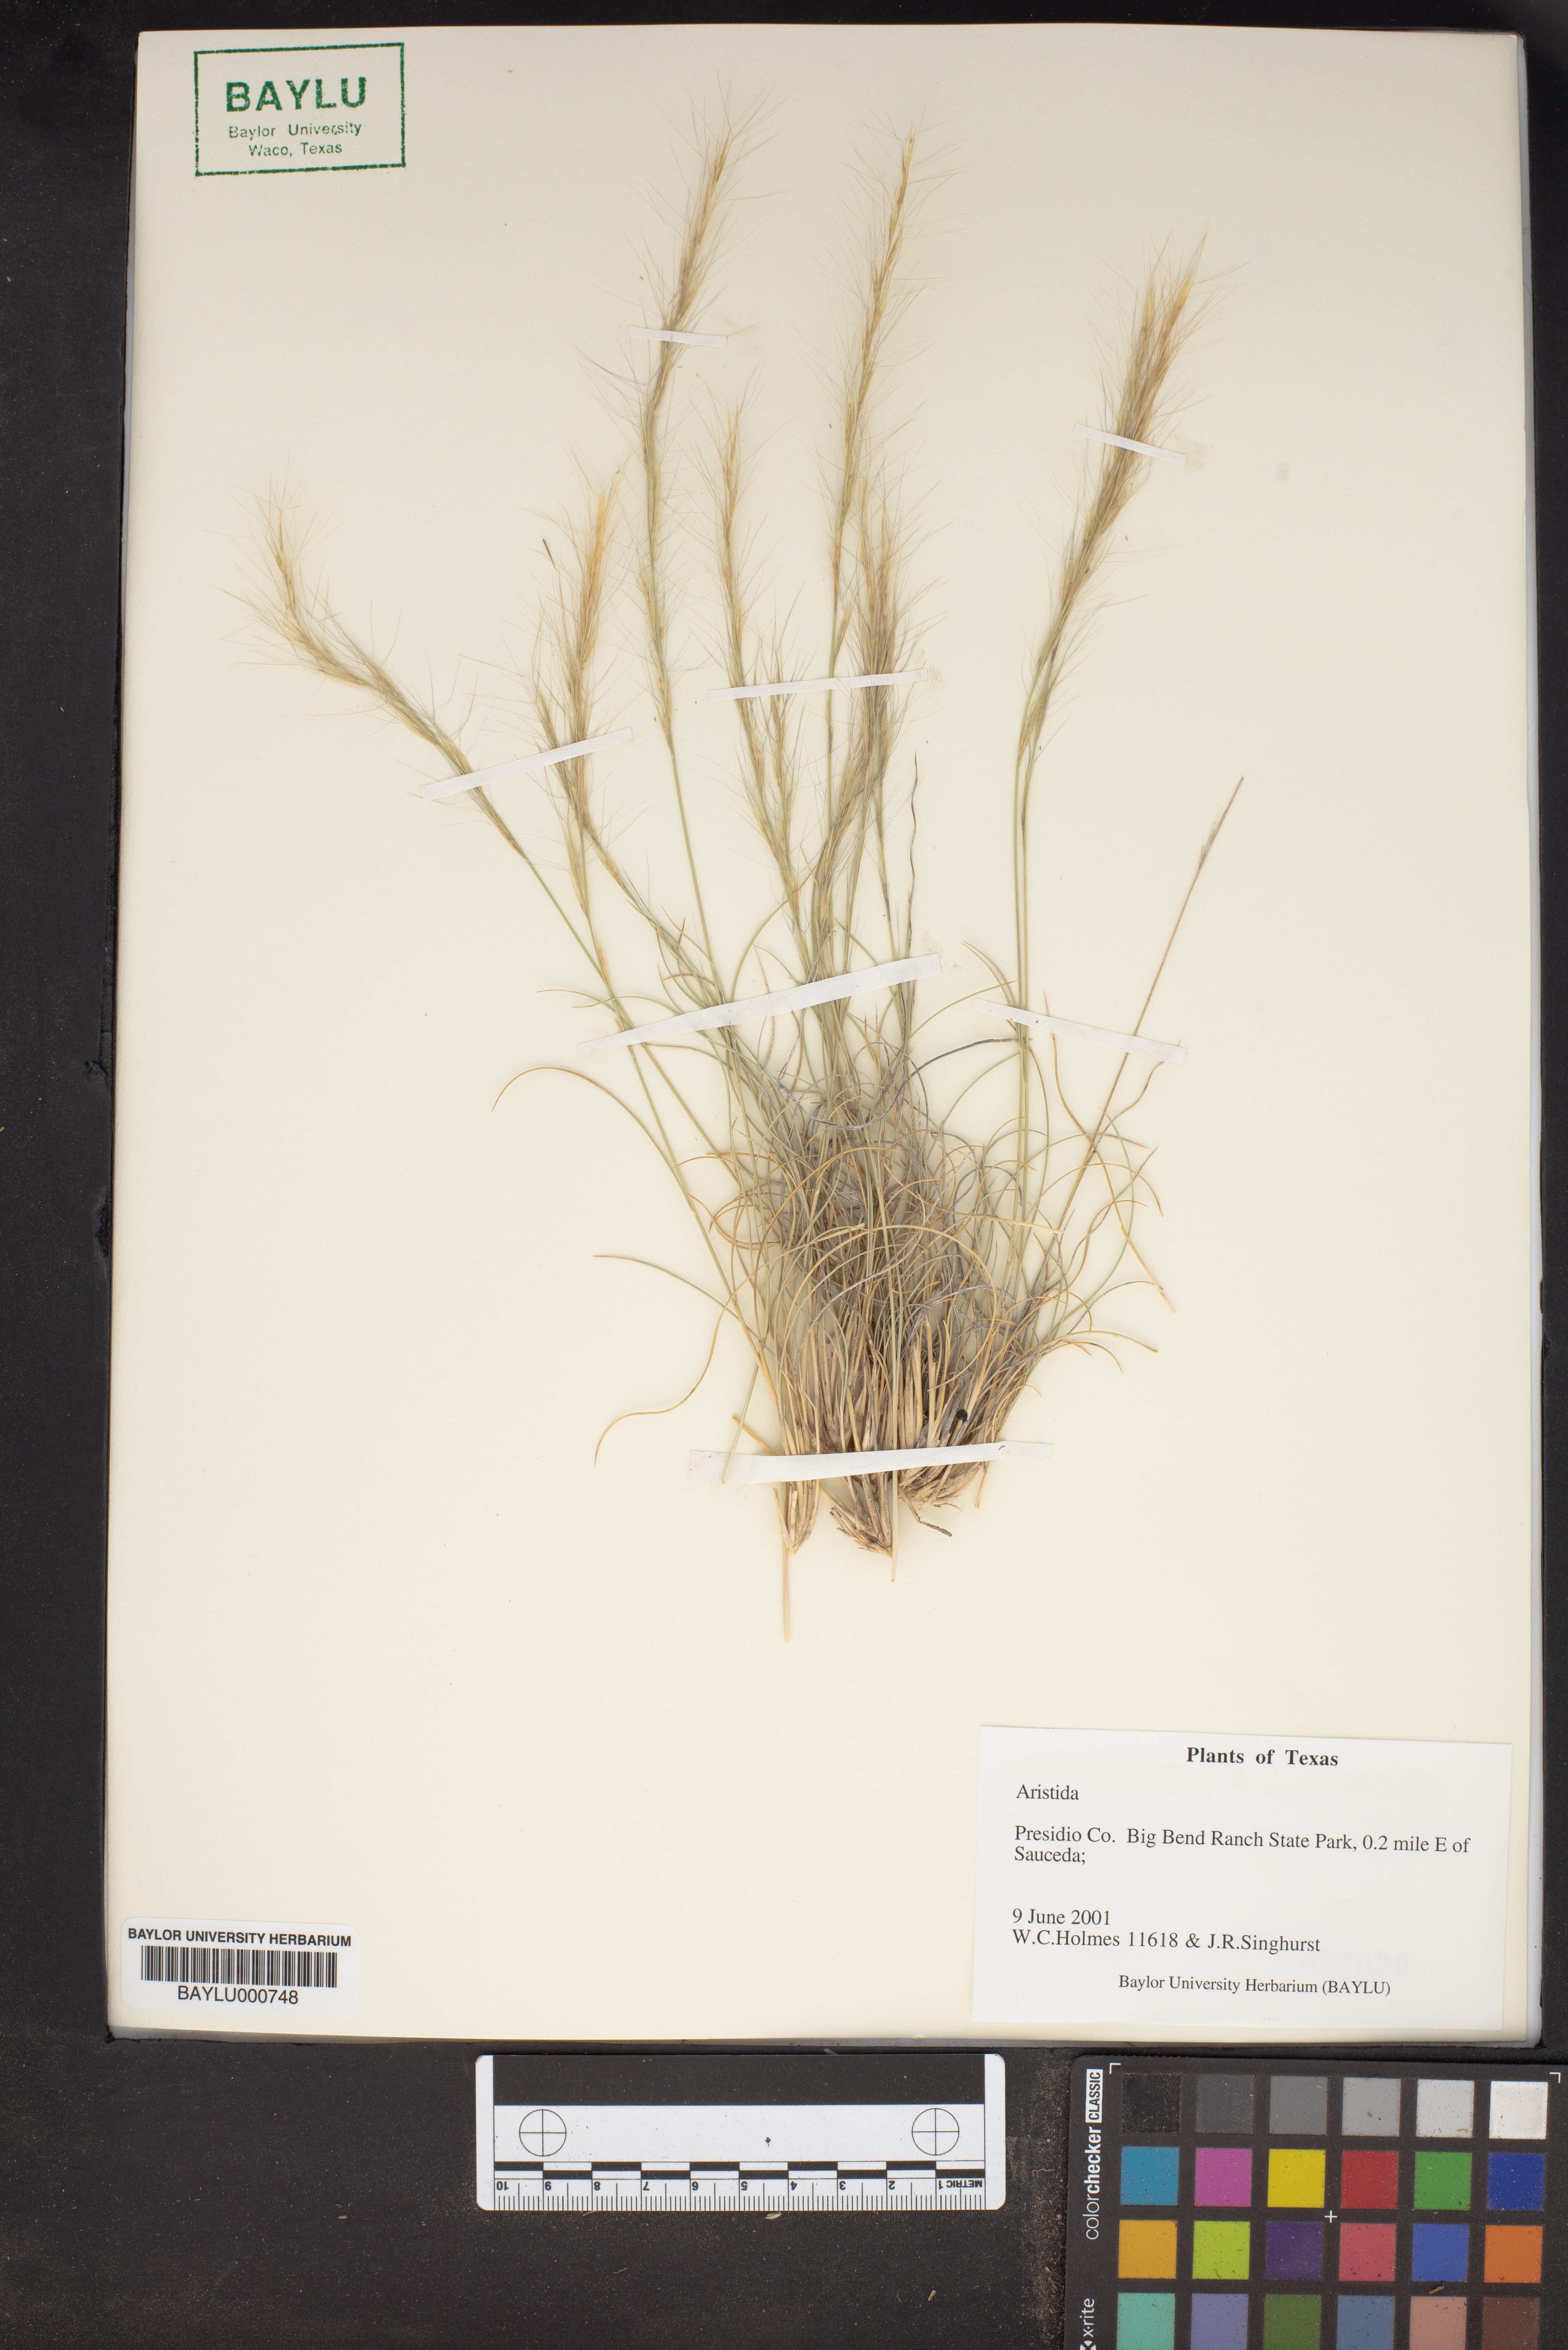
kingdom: Plantae
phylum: Tracheophyta
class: Liliopsida
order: Poales
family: Poaceae
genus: Aristida
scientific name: Aristida
